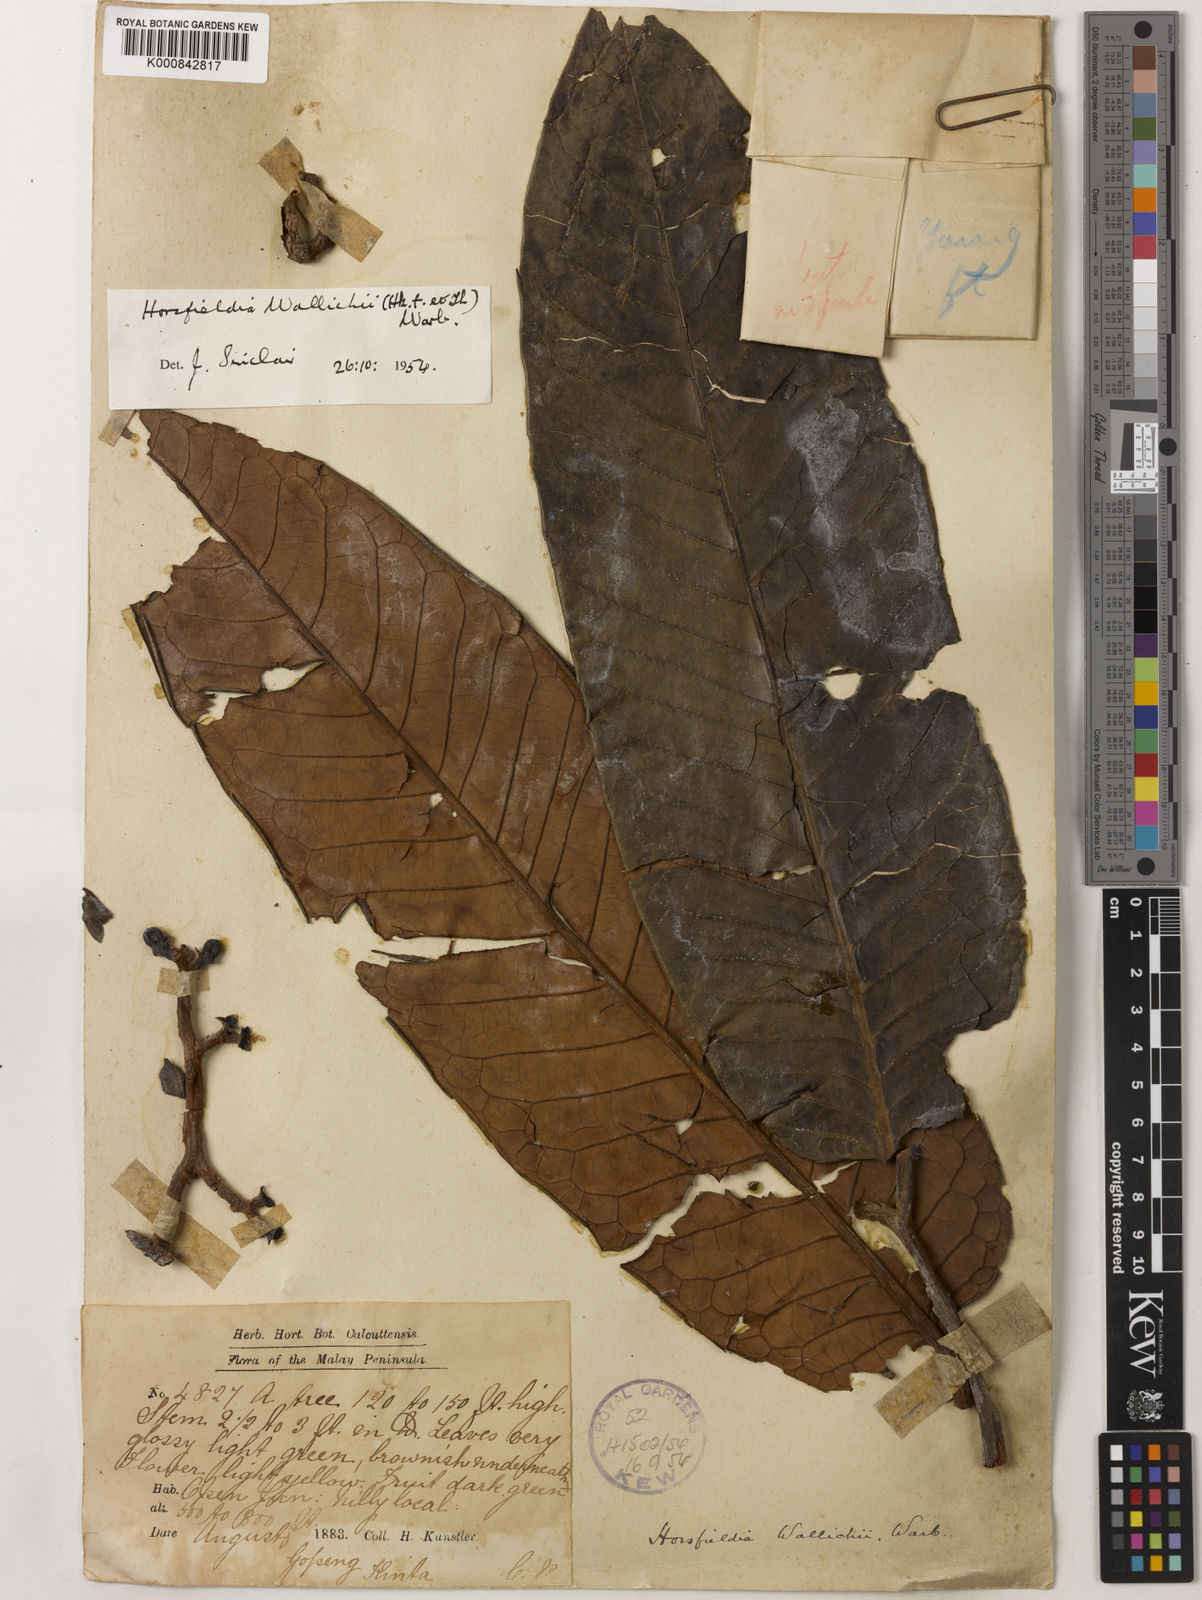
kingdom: Plantae
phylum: Tracheophyta
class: Magnoliopsida
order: Magnoliales
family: Myristicaceae
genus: Horsfieldia
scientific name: Horsfieldia wallichii
